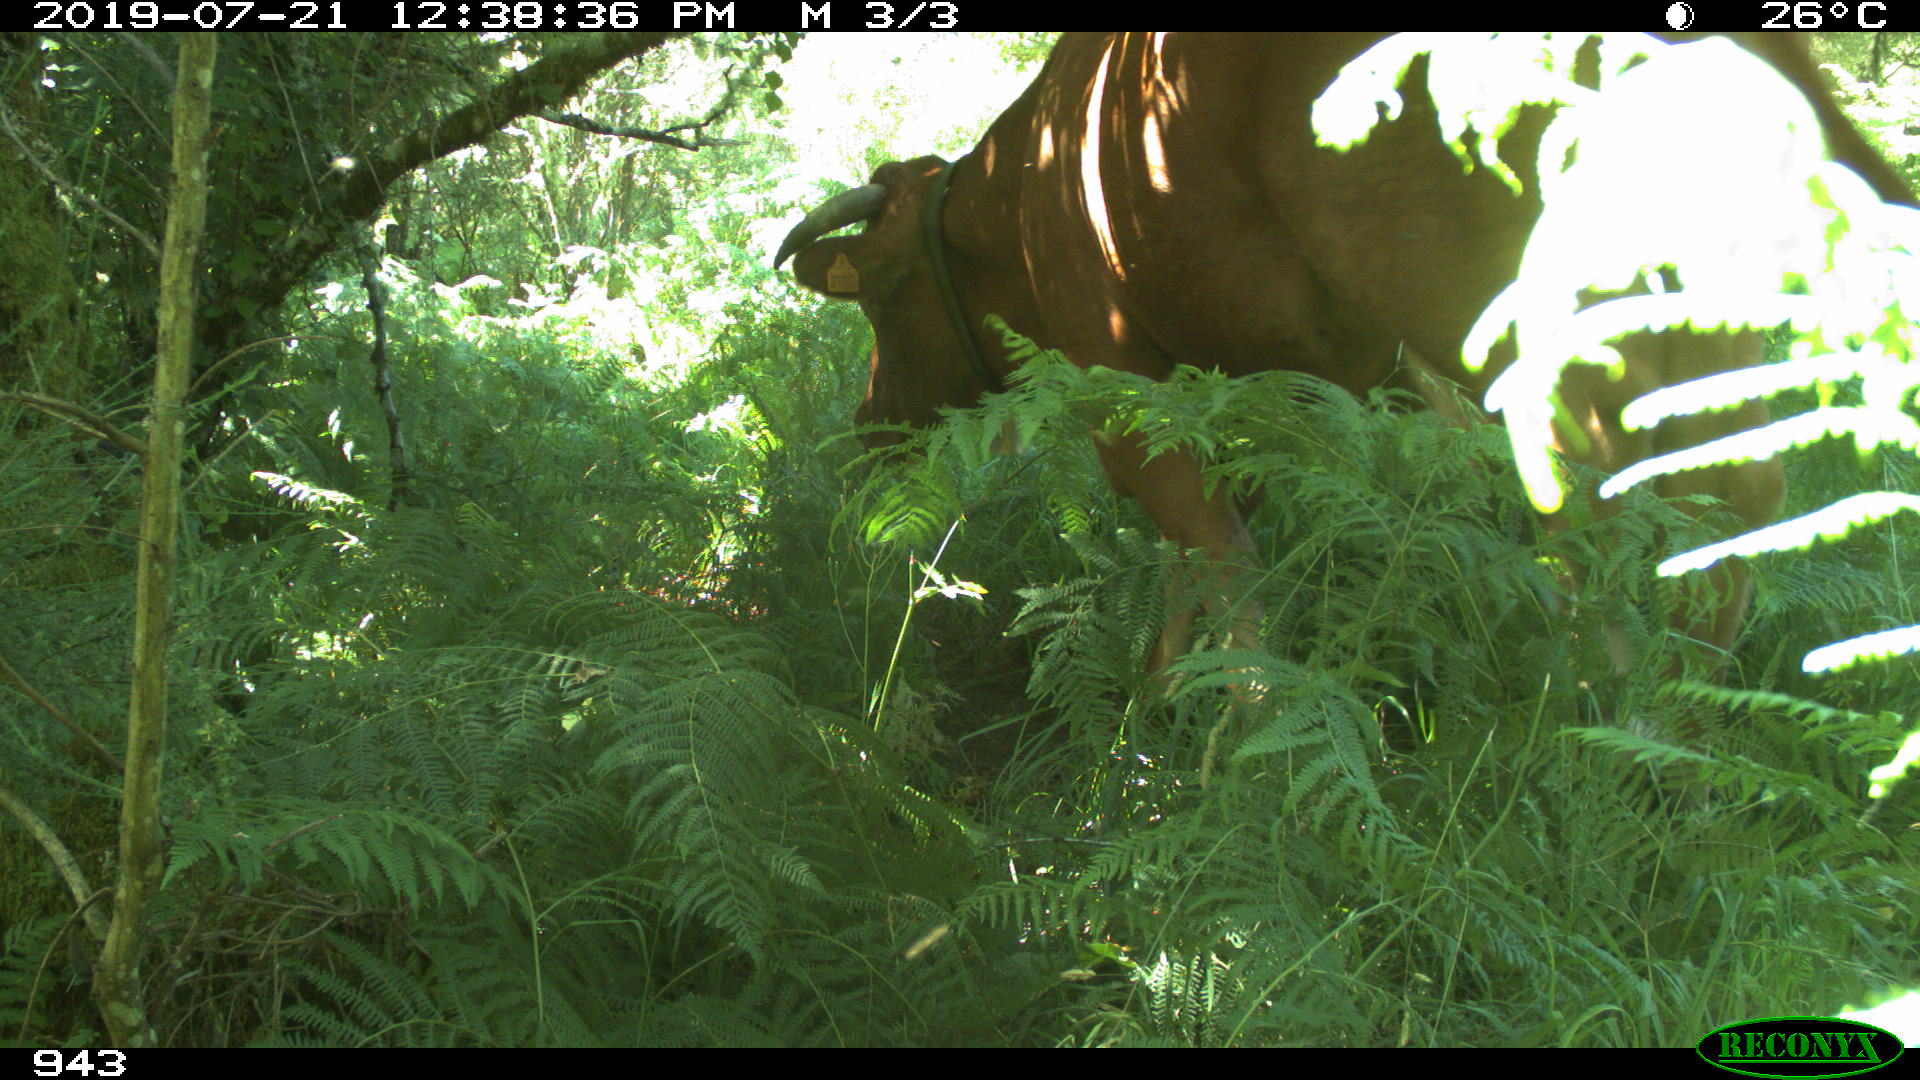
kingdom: Animalia
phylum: Chordata
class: Mammalia
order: Artiodactyla
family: Bovidae
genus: Bos
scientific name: Bos taurus
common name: Domesticated cattle
